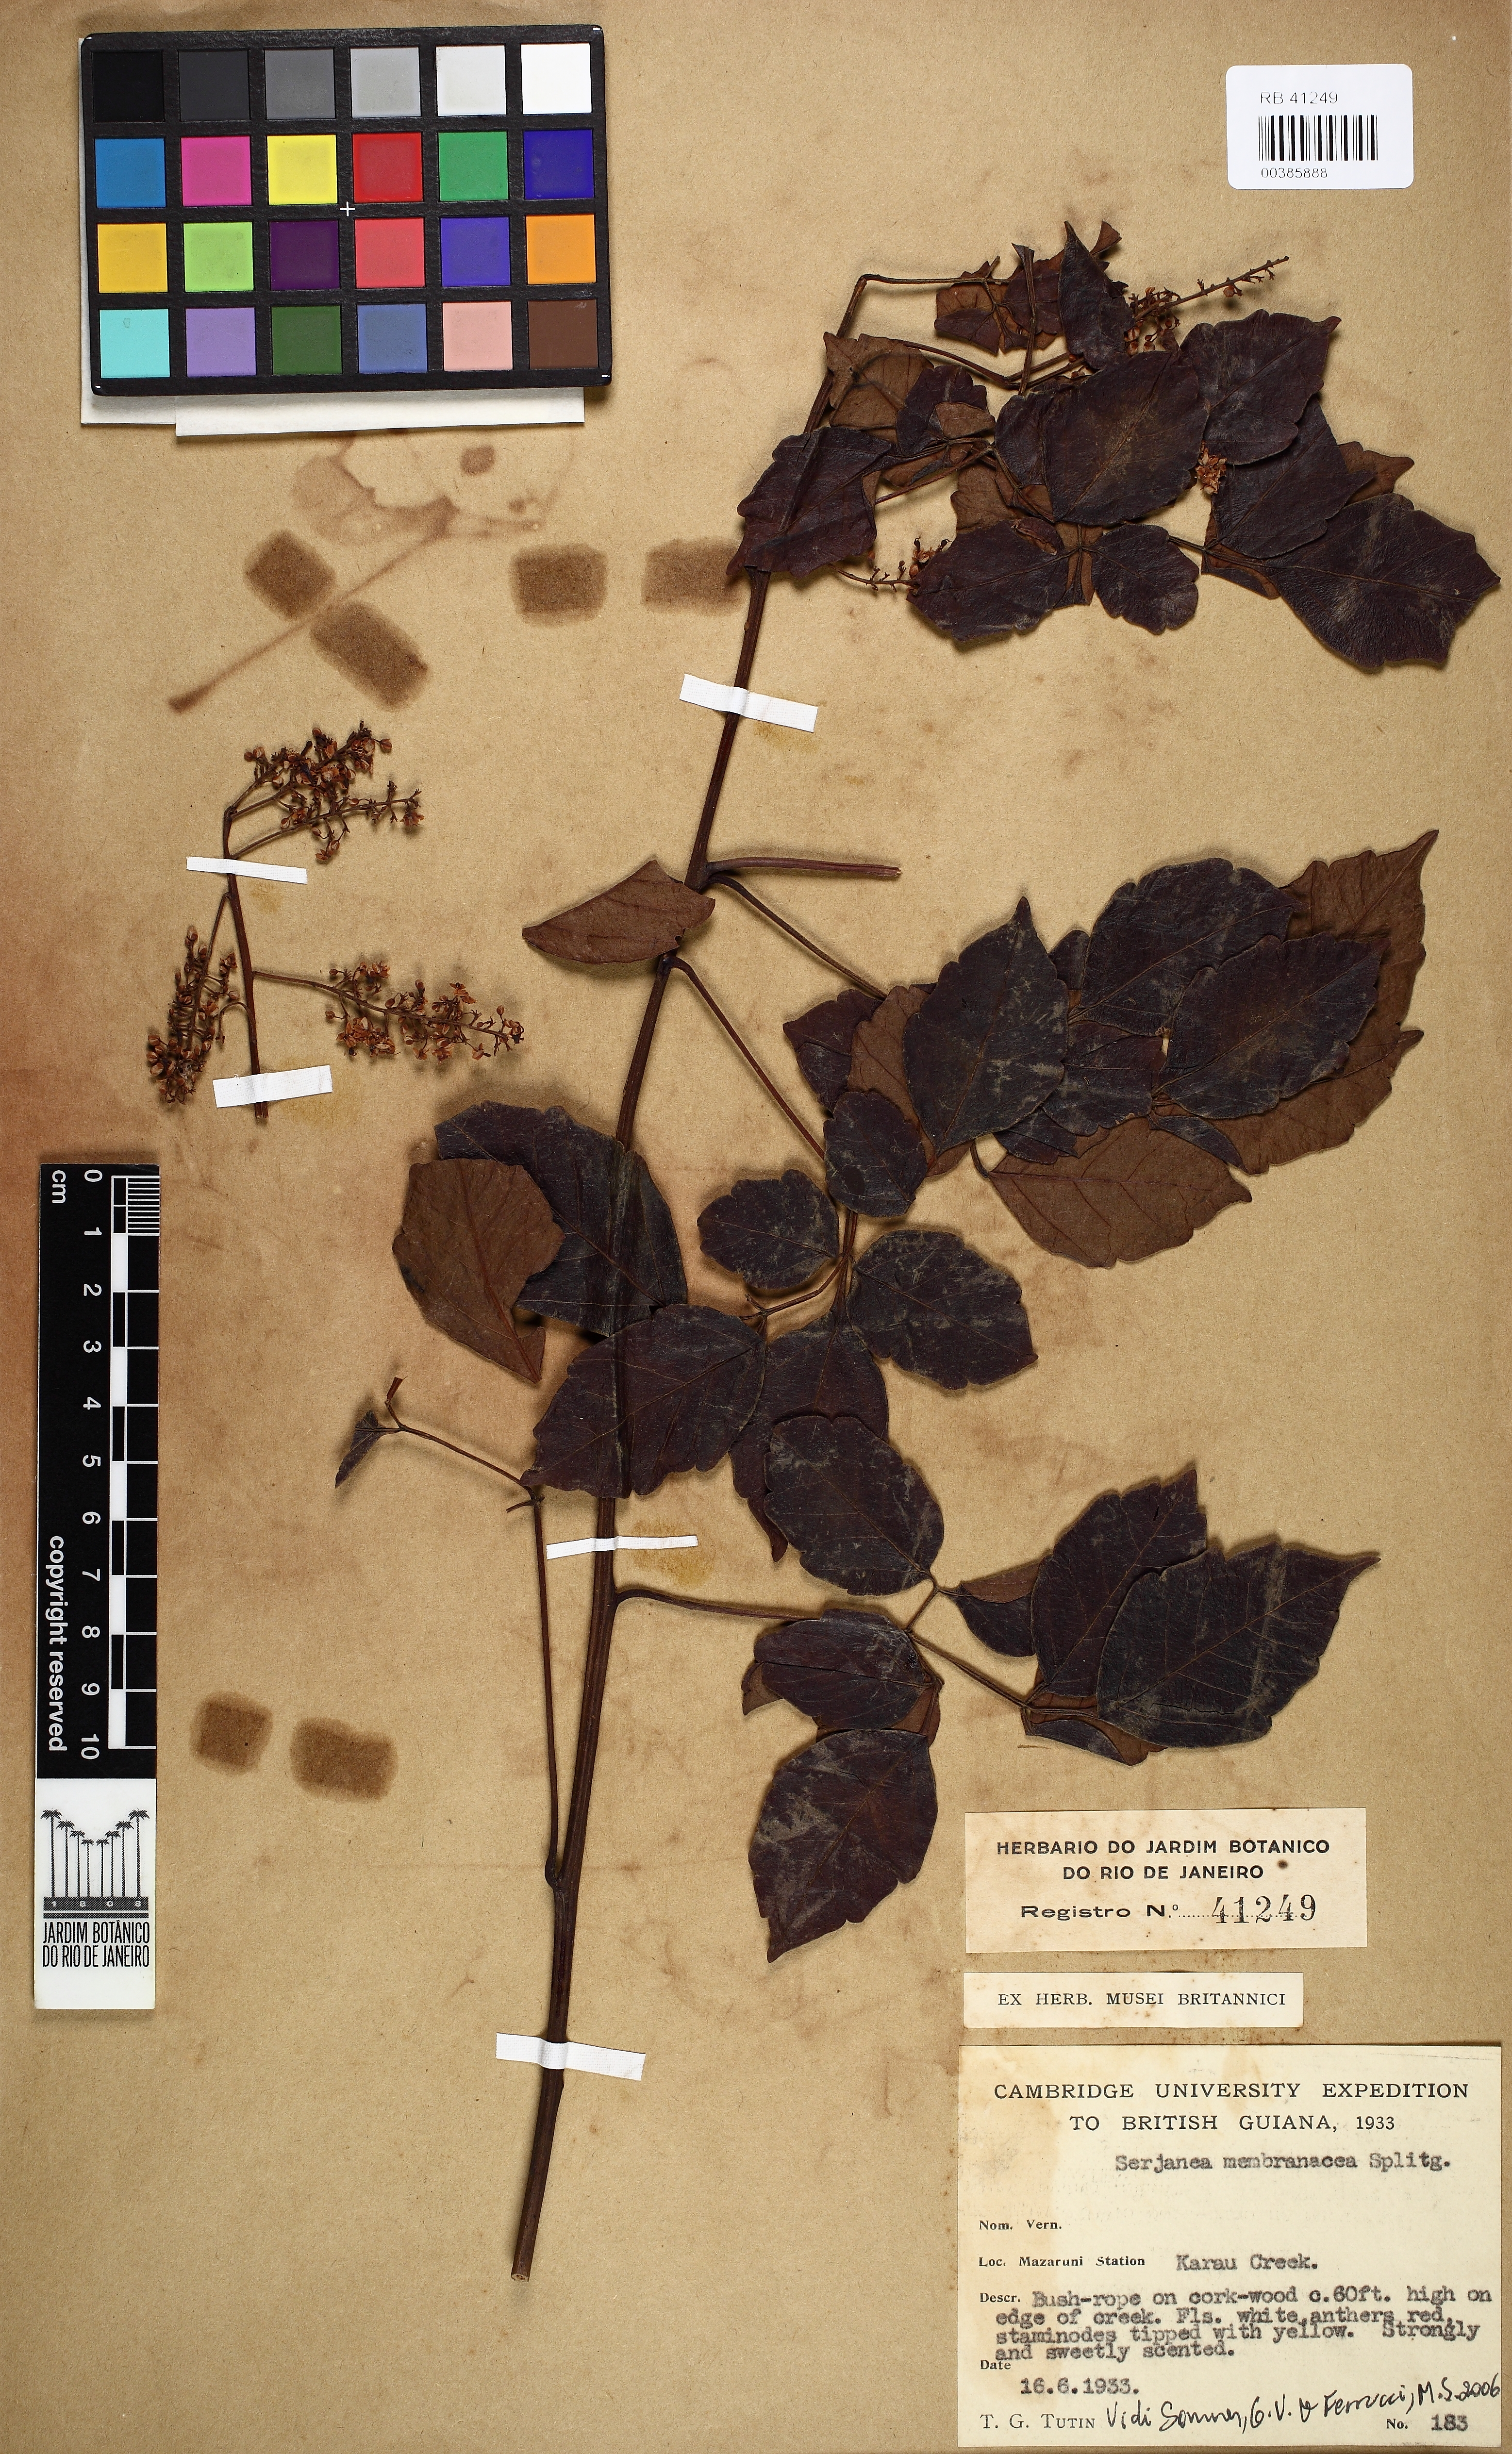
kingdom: Plantae
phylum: Tracheophyta
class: Magnoliopsida
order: Sapindales
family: Sapindaceae
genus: Serjania
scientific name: Serjania membranacea
